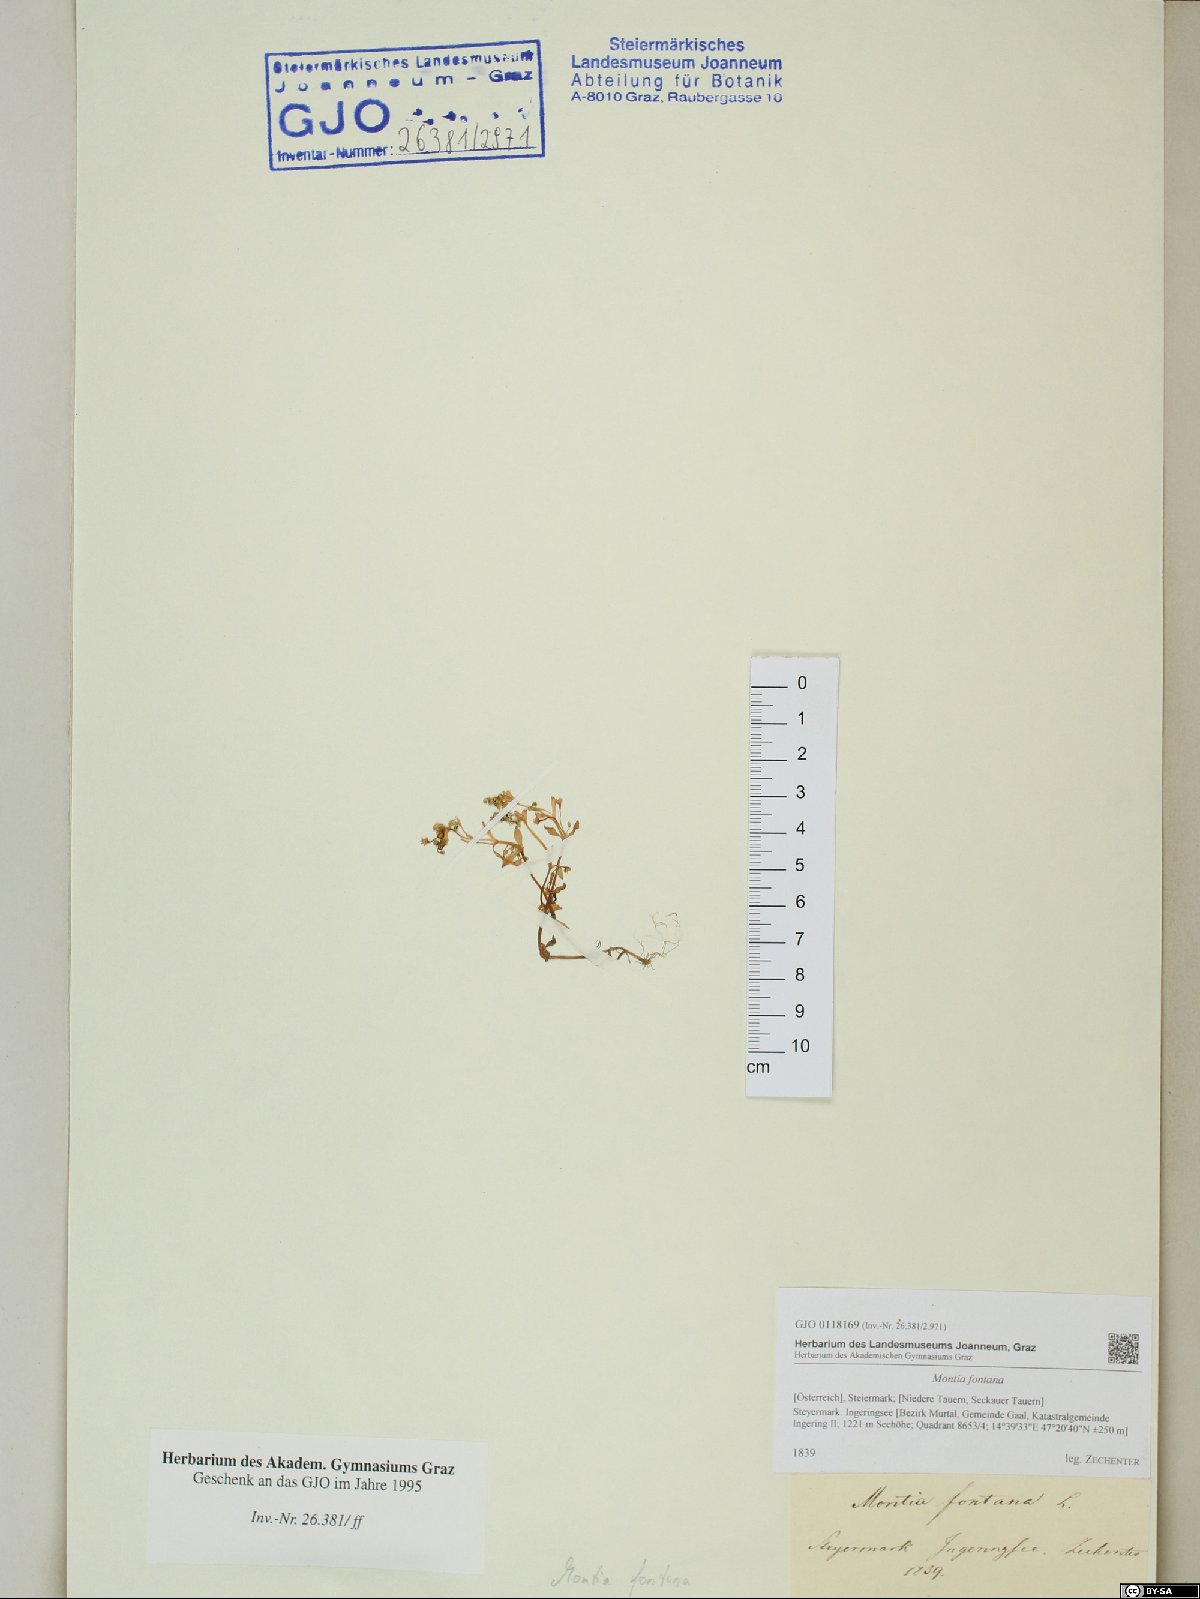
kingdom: Plantae
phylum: Tracheophyta
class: Magnoliopsida
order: Caryophyllales
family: Montiaceae
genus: Montia
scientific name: Montia fontana
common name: Blinks
